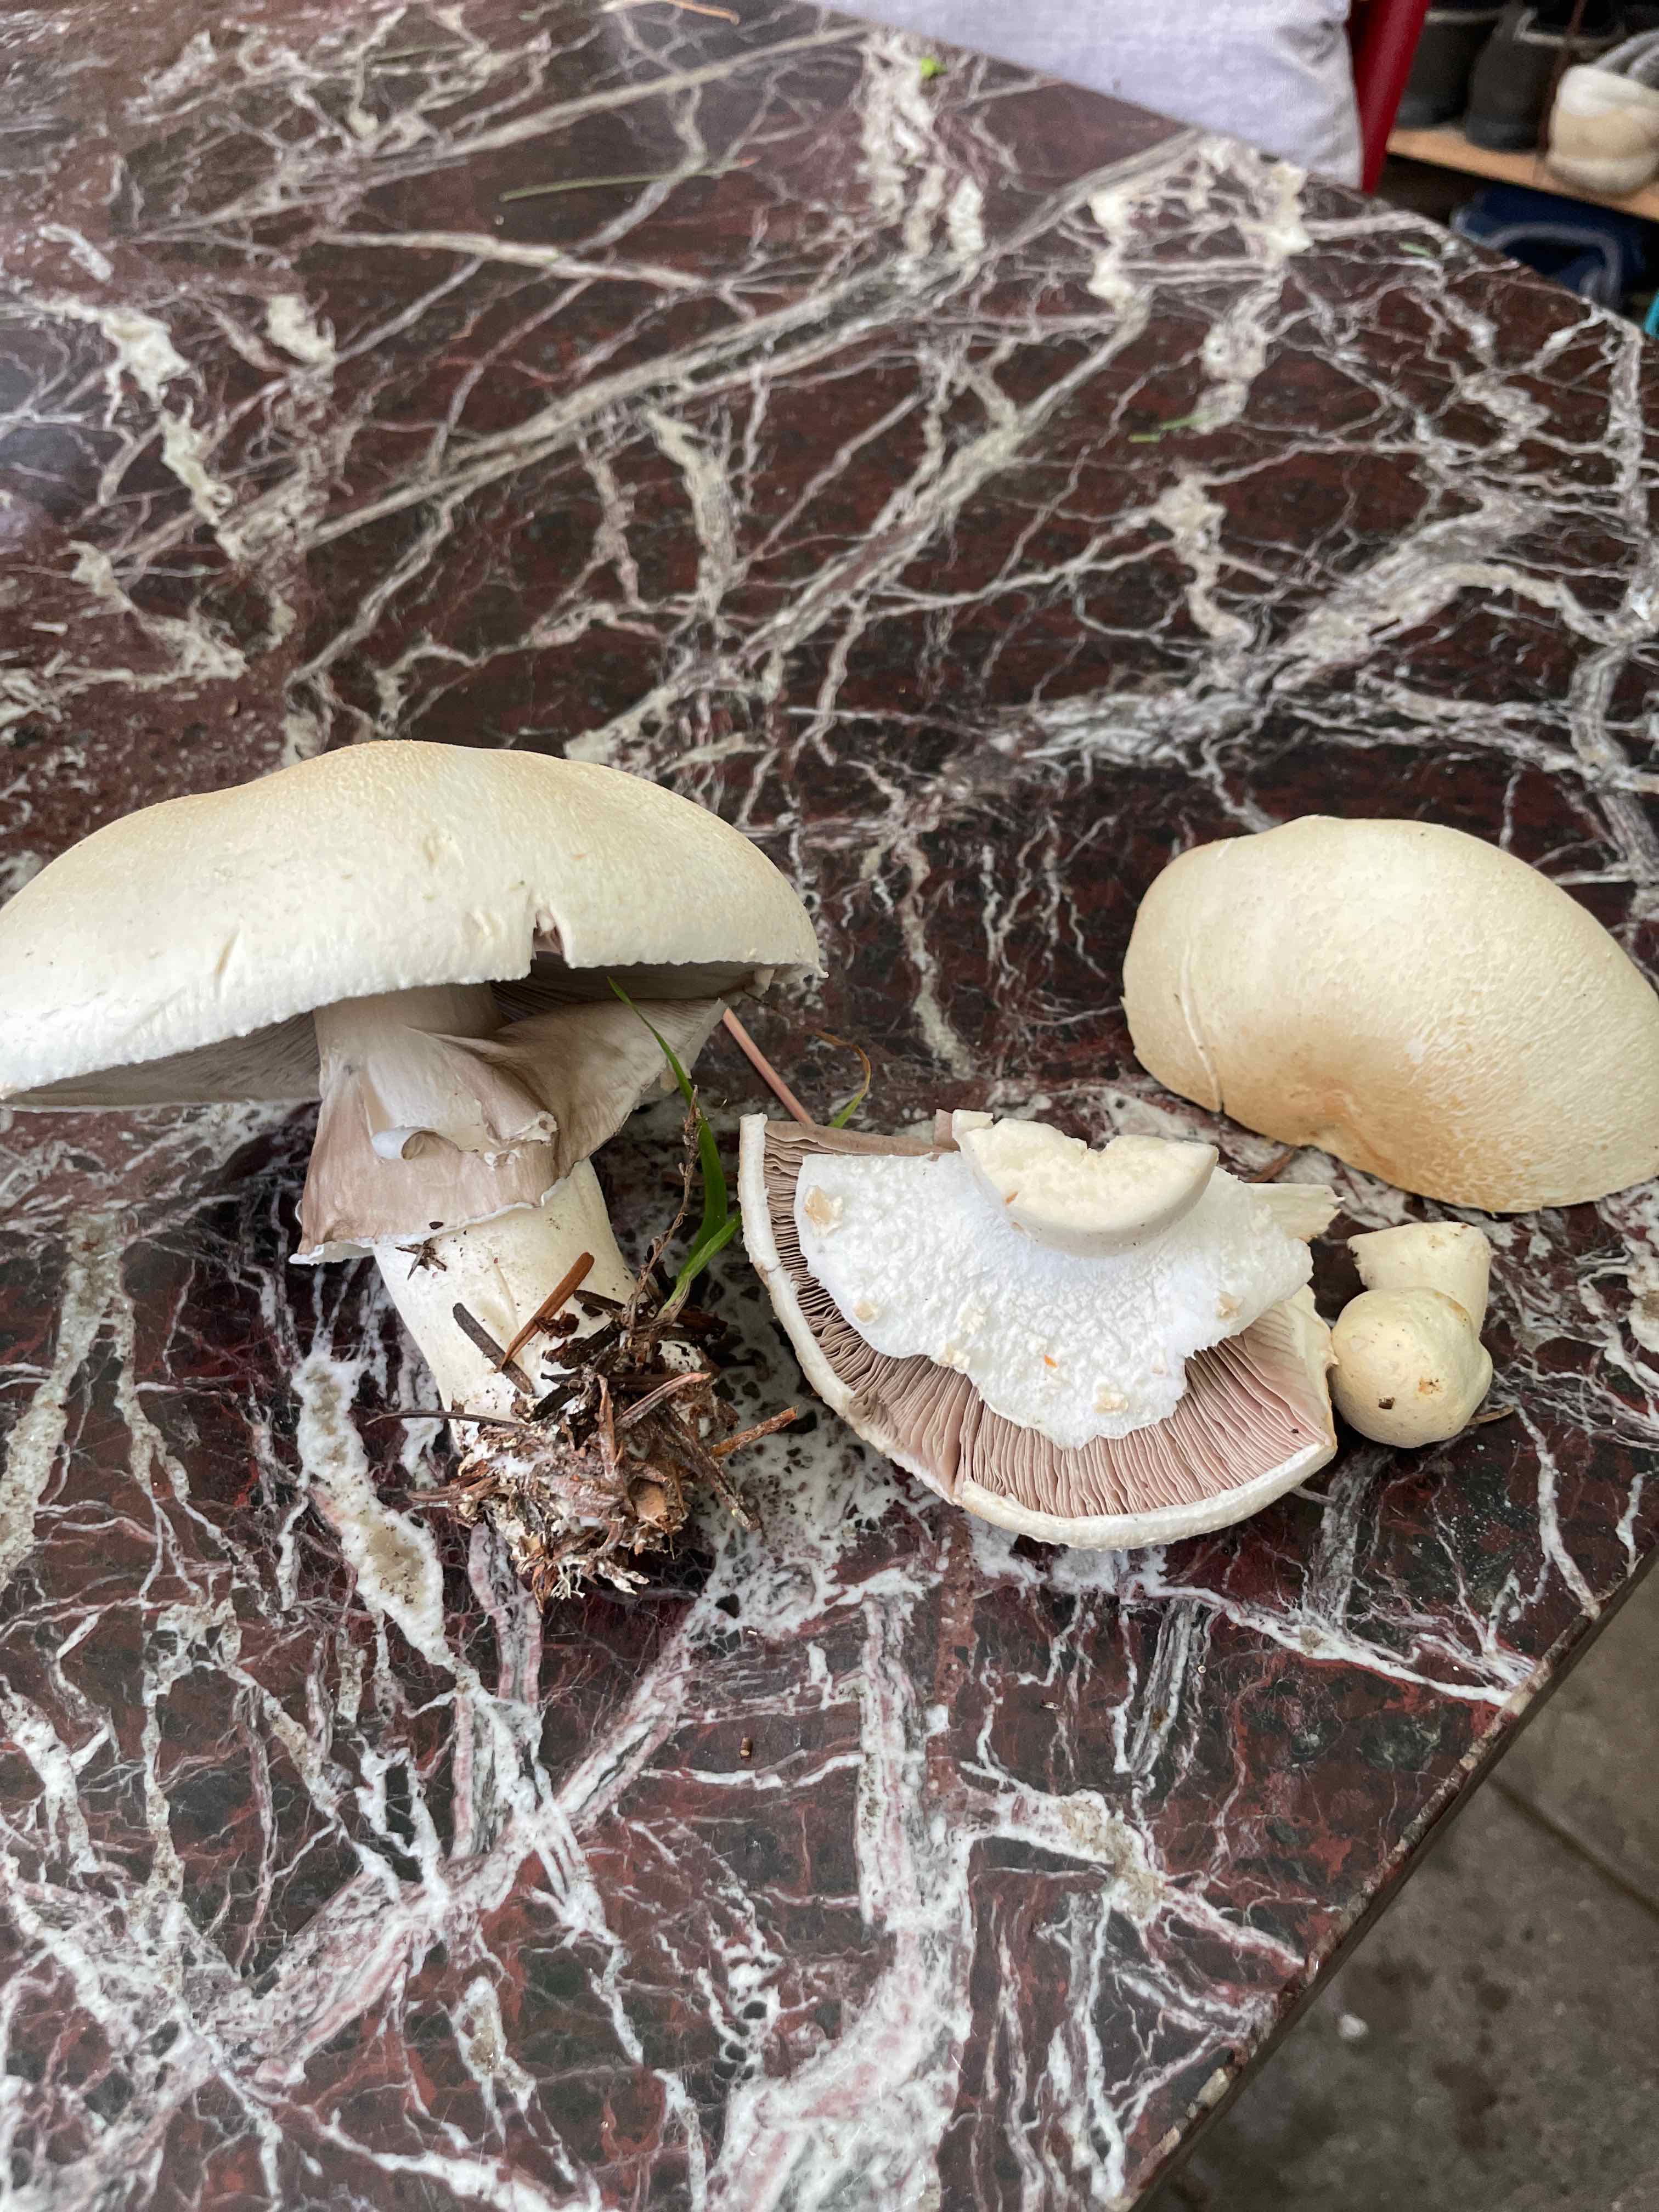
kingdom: Fungi
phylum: Basidiomycota
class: Agaricomycetes
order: Agaricales
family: Agaricaceae
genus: Agaricus
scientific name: Agaricus
